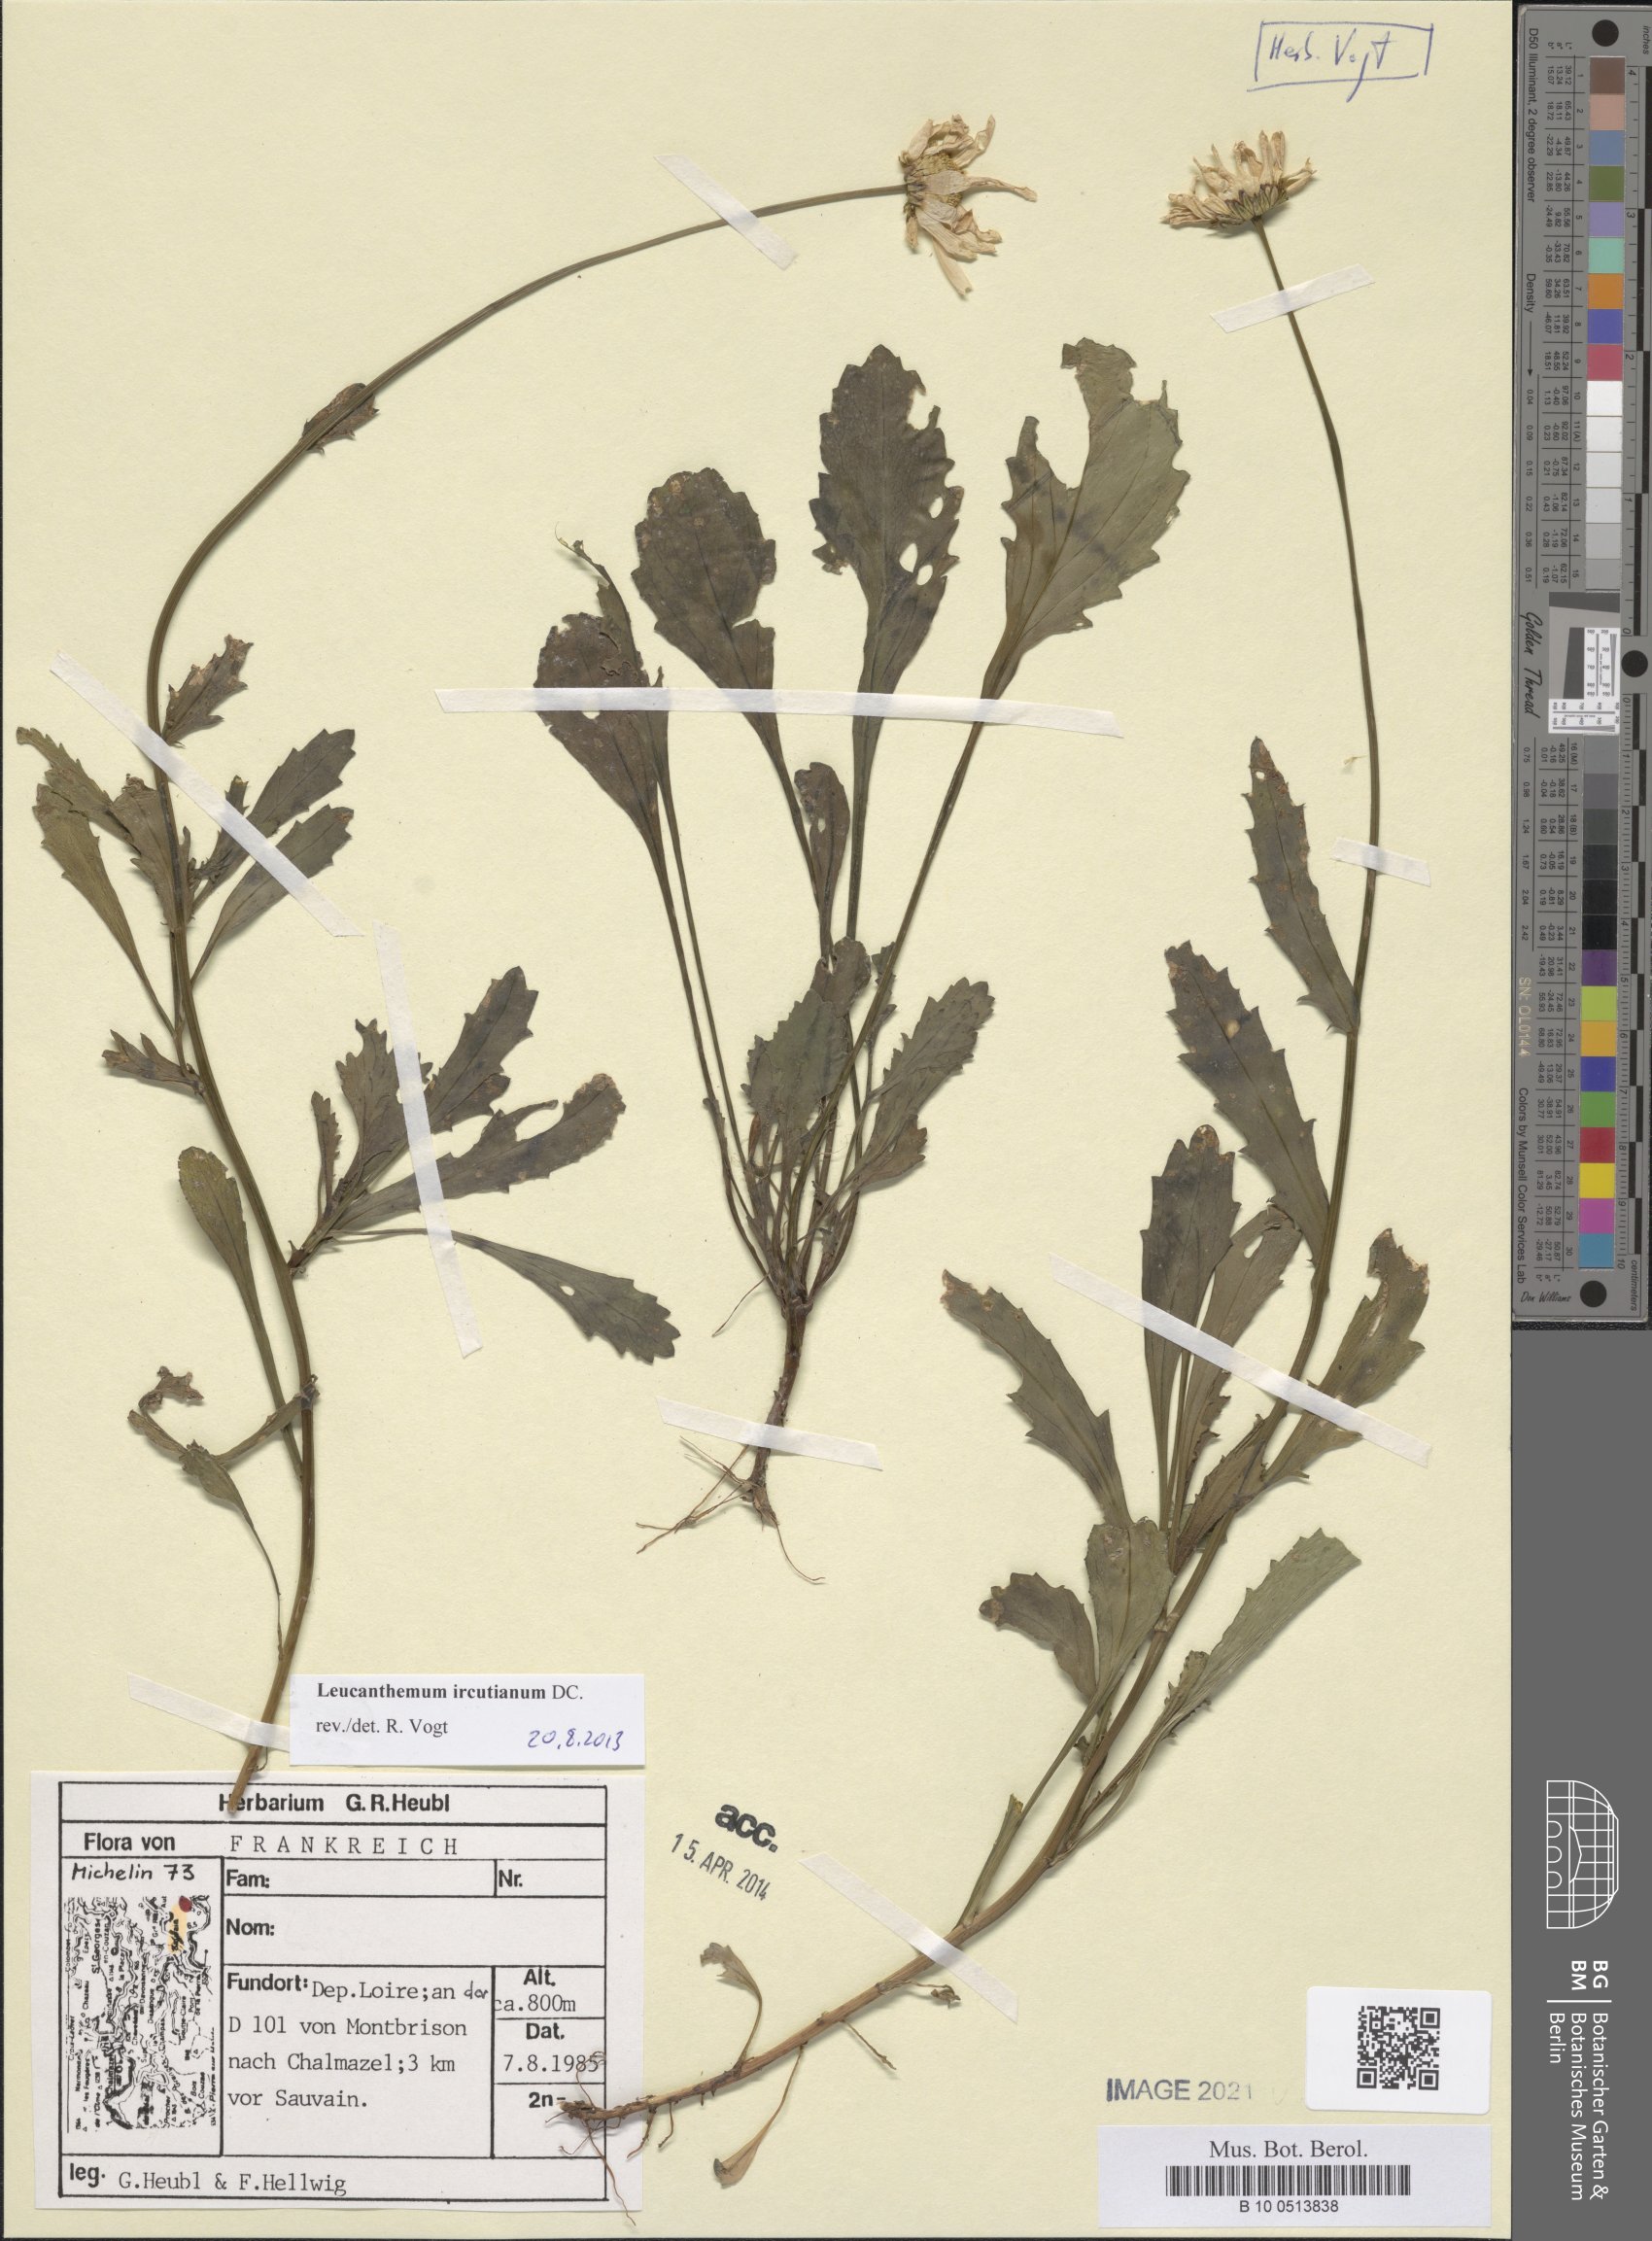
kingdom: Plantae
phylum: Tracheophyta
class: Magnoliopsida
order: Asterales
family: Asteraceae
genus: Leucanthemum
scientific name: Leucanthemum ircutianum
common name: Daisy
